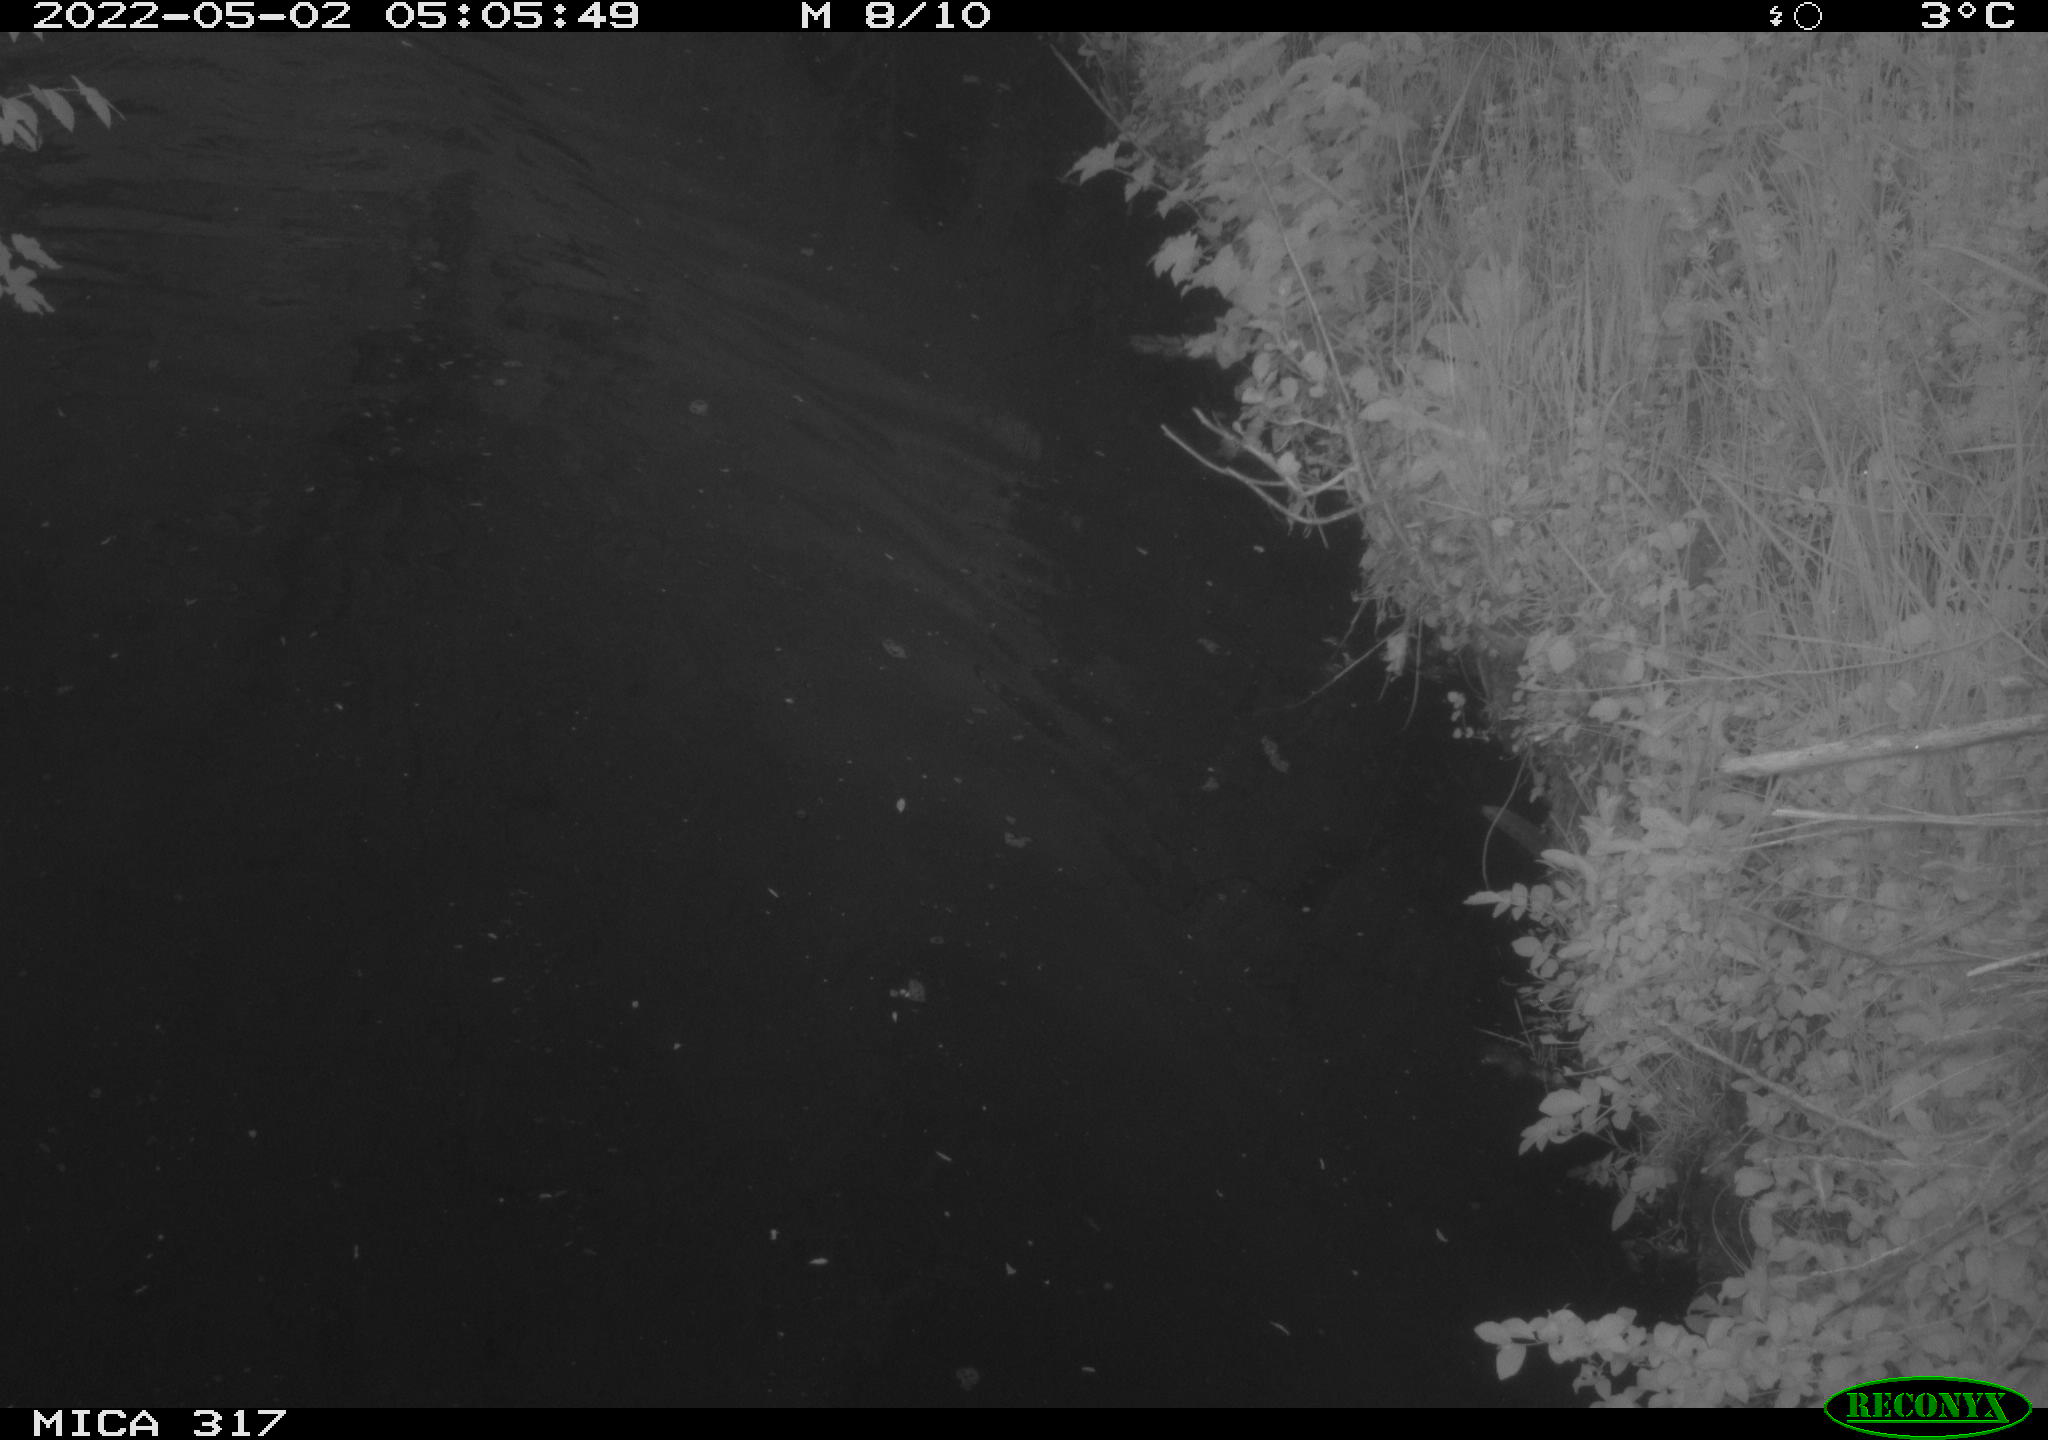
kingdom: Animalia
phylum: Chordata
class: Aves
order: Anseriformes
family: Anatidae
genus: Anas
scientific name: Anas platyrhynchos
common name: Mallard
